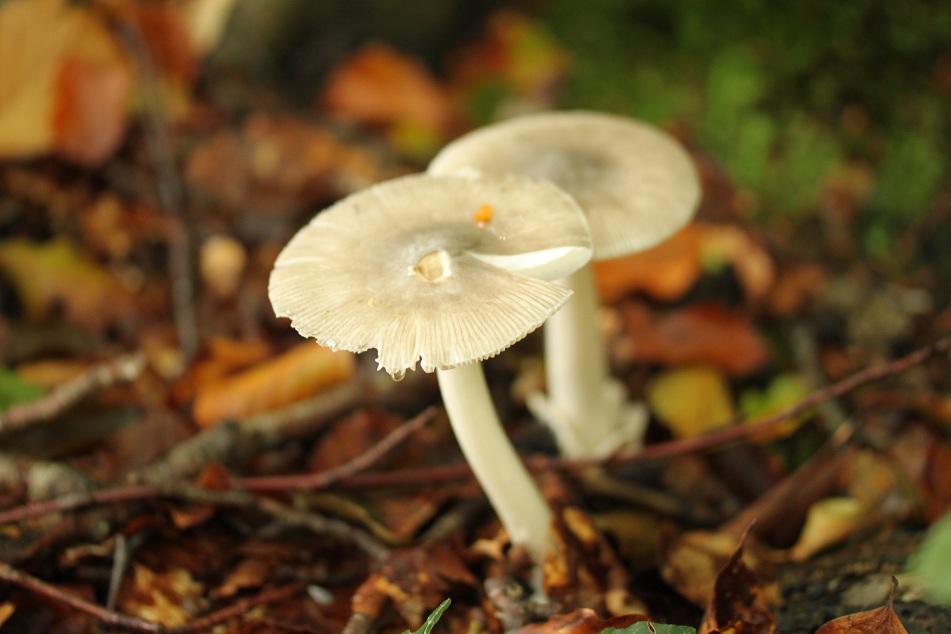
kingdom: Fungi
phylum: Basidiomycota
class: Agaricomycetes
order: Agaricales
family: Amanitaceae
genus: Amanita
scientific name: Amanita vaginata
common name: grå kam-fluesvamp
